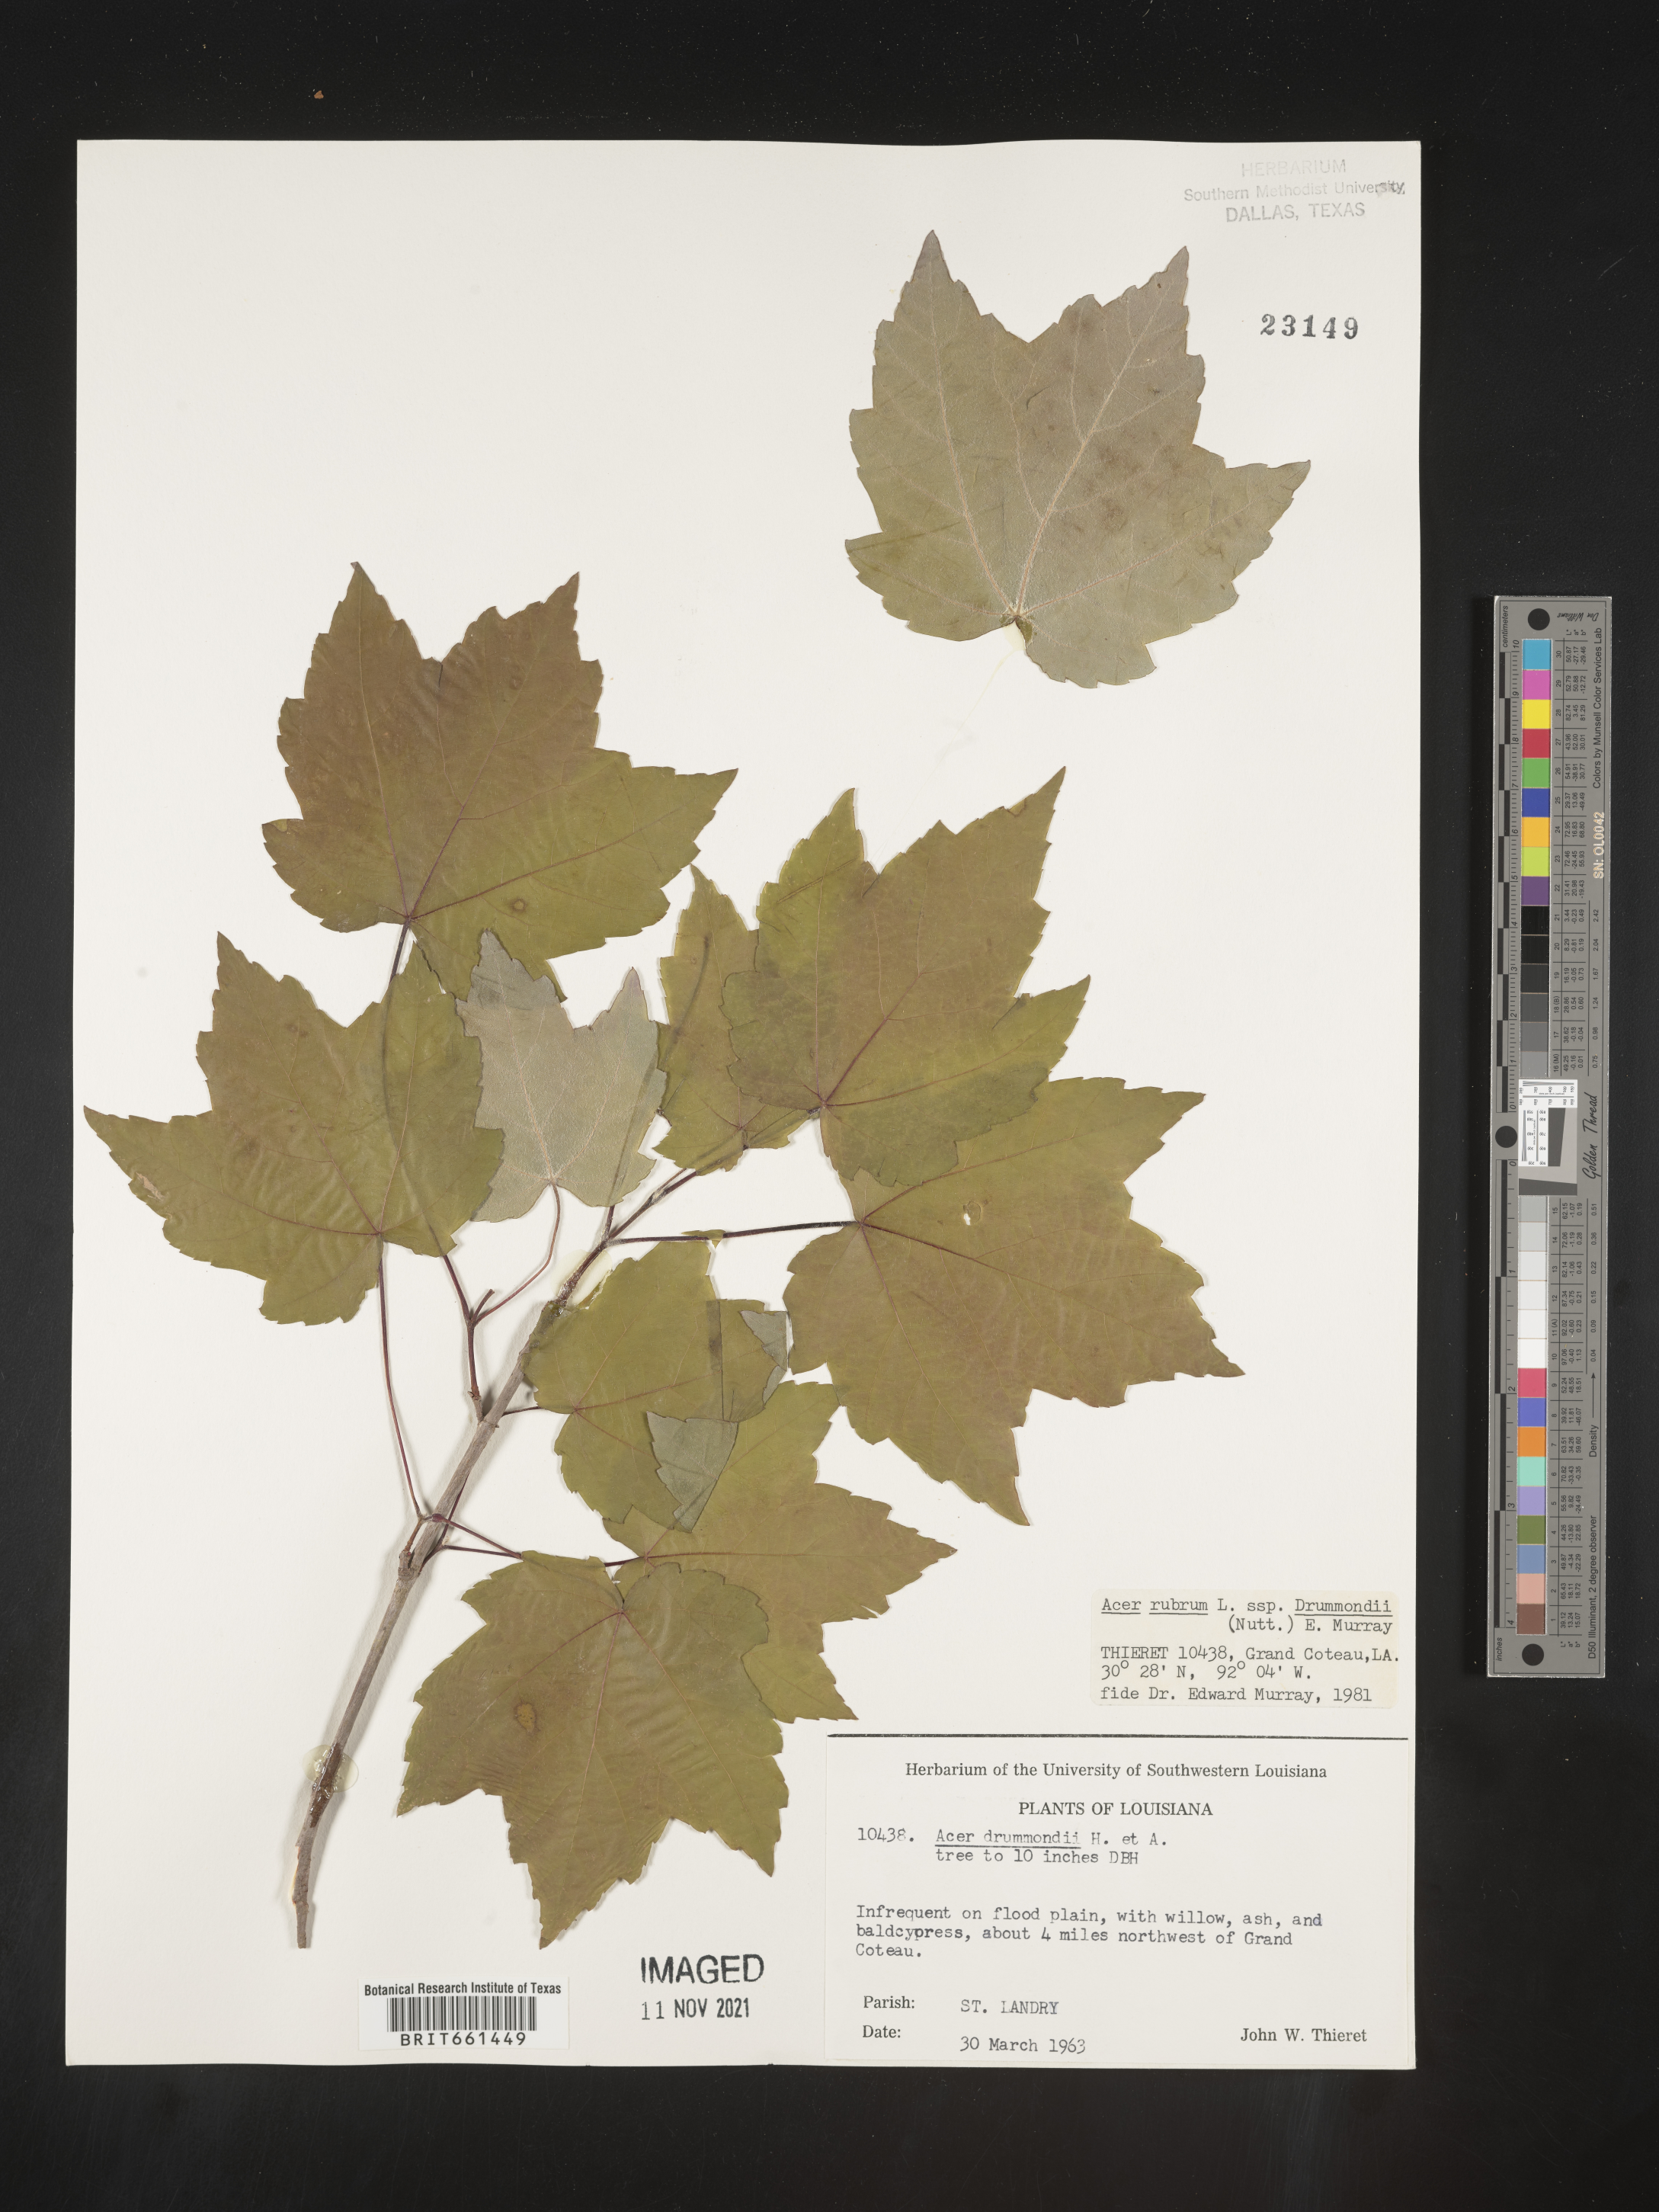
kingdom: Plantae
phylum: Tracheophyta
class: Magnoliopsida
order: Sapindales
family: Sapindaceae
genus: Acer
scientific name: Acer rubrum
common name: Red maple
